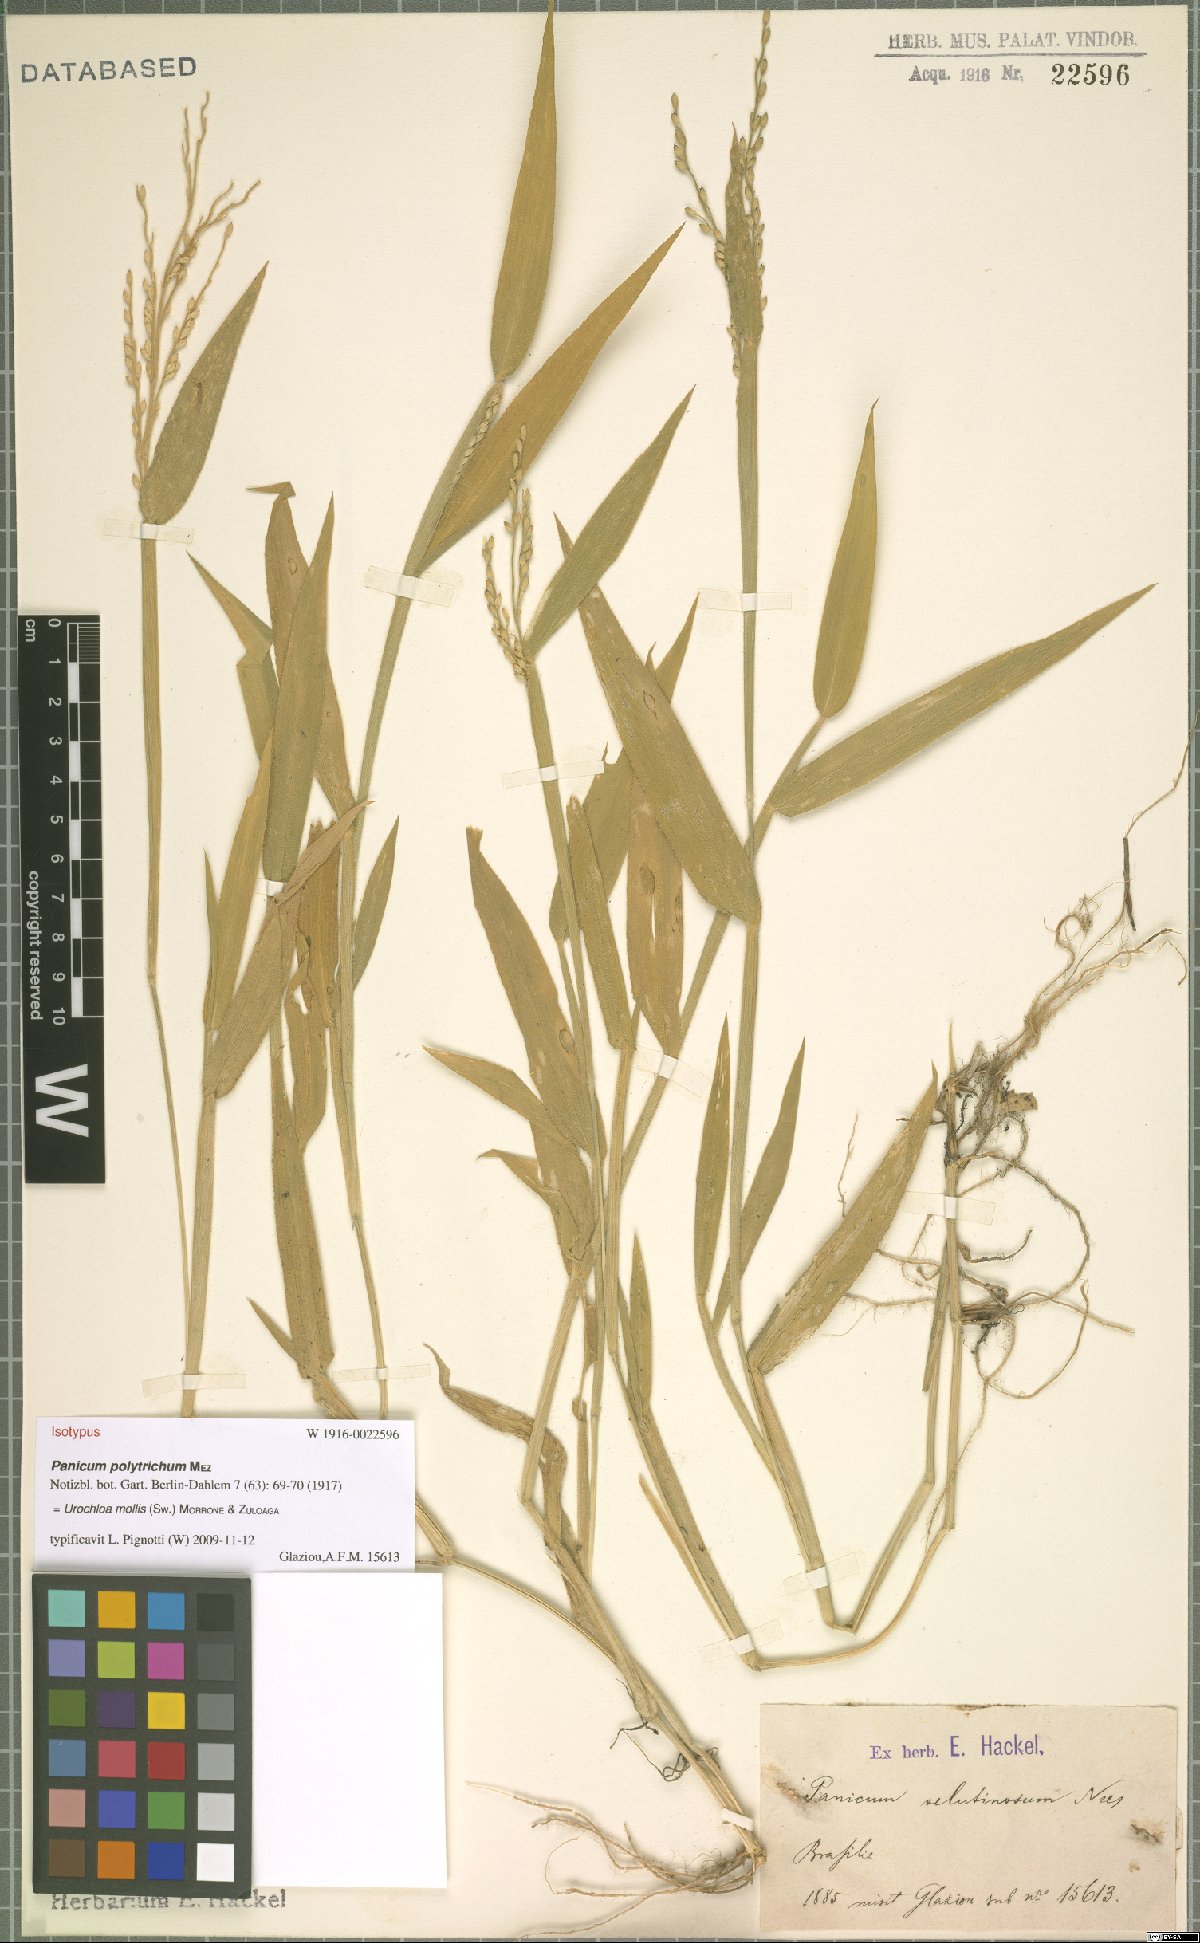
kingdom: Plantae
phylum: Tracheophyta
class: Liliopsida
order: Poales
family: Poaceae
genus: Urochloa
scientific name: Urochloa mollis
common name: Grass
